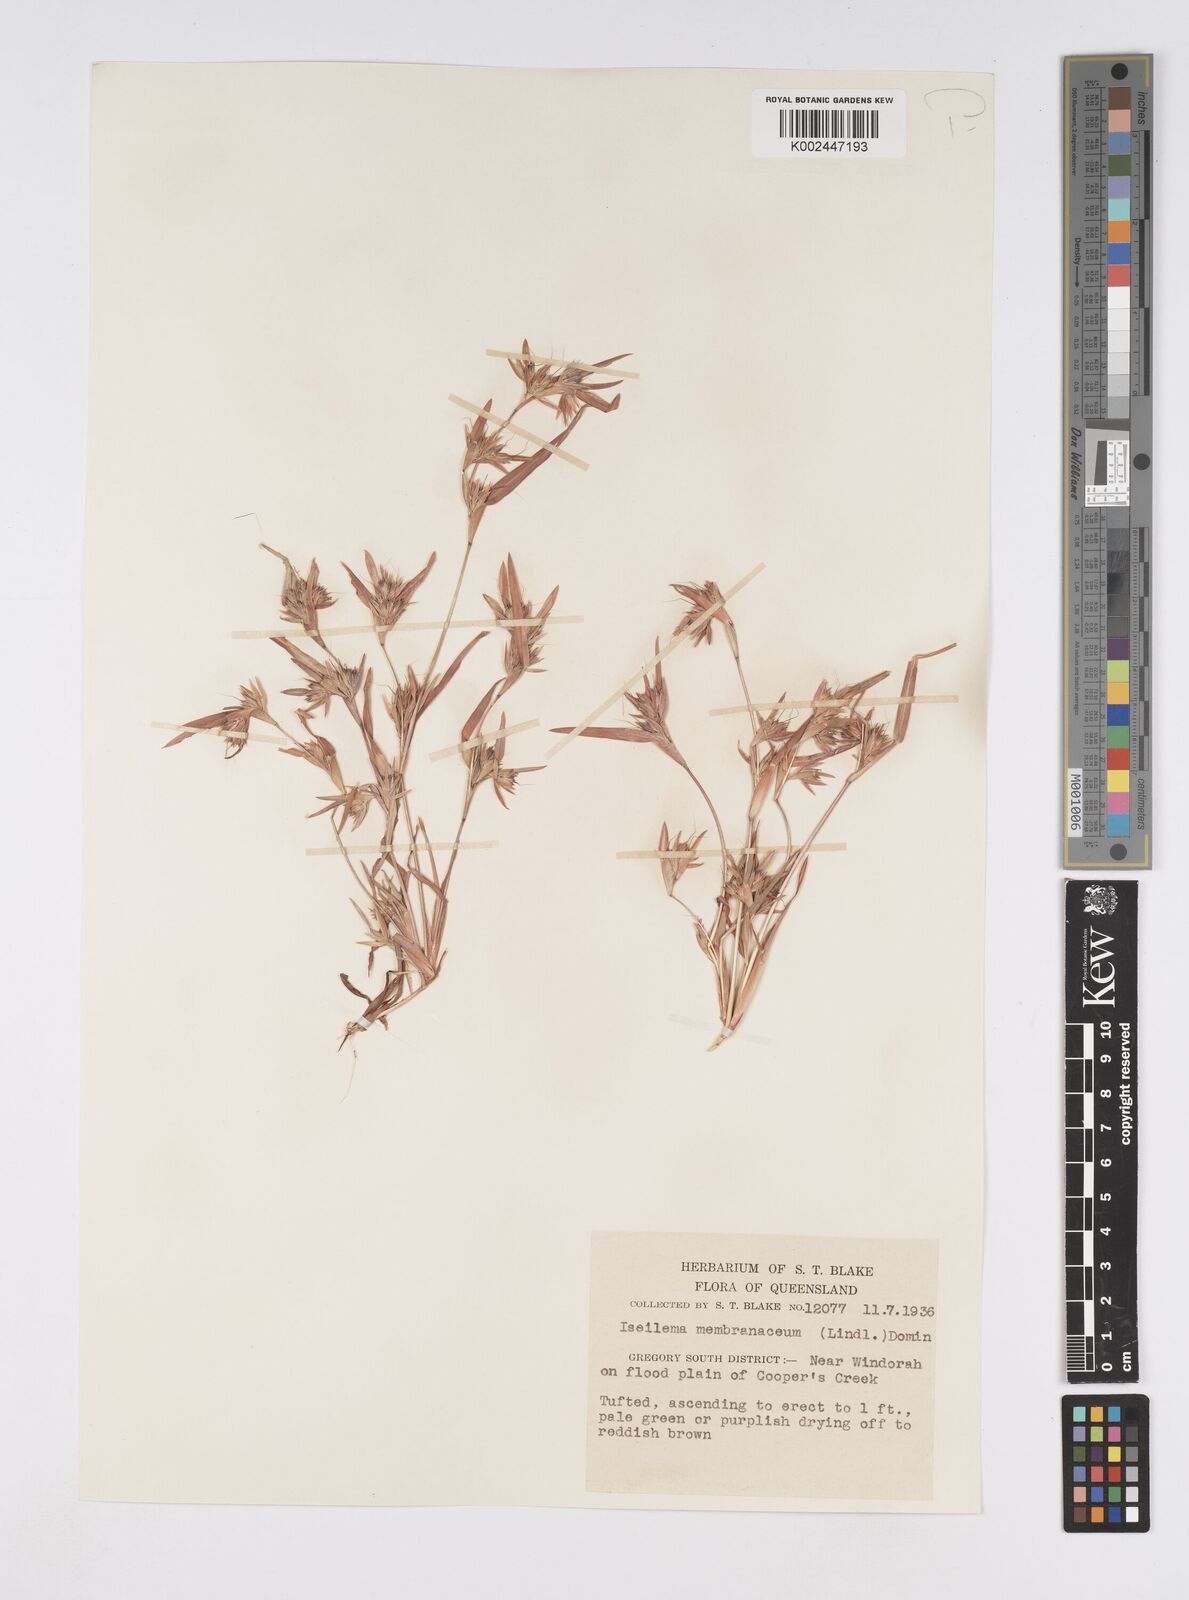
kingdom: Plantae
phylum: Tracheophyta
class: Liliopsida
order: Poales
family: Poaceae
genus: Iseilema
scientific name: Iseilema membranaceum
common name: Small flinders grass
